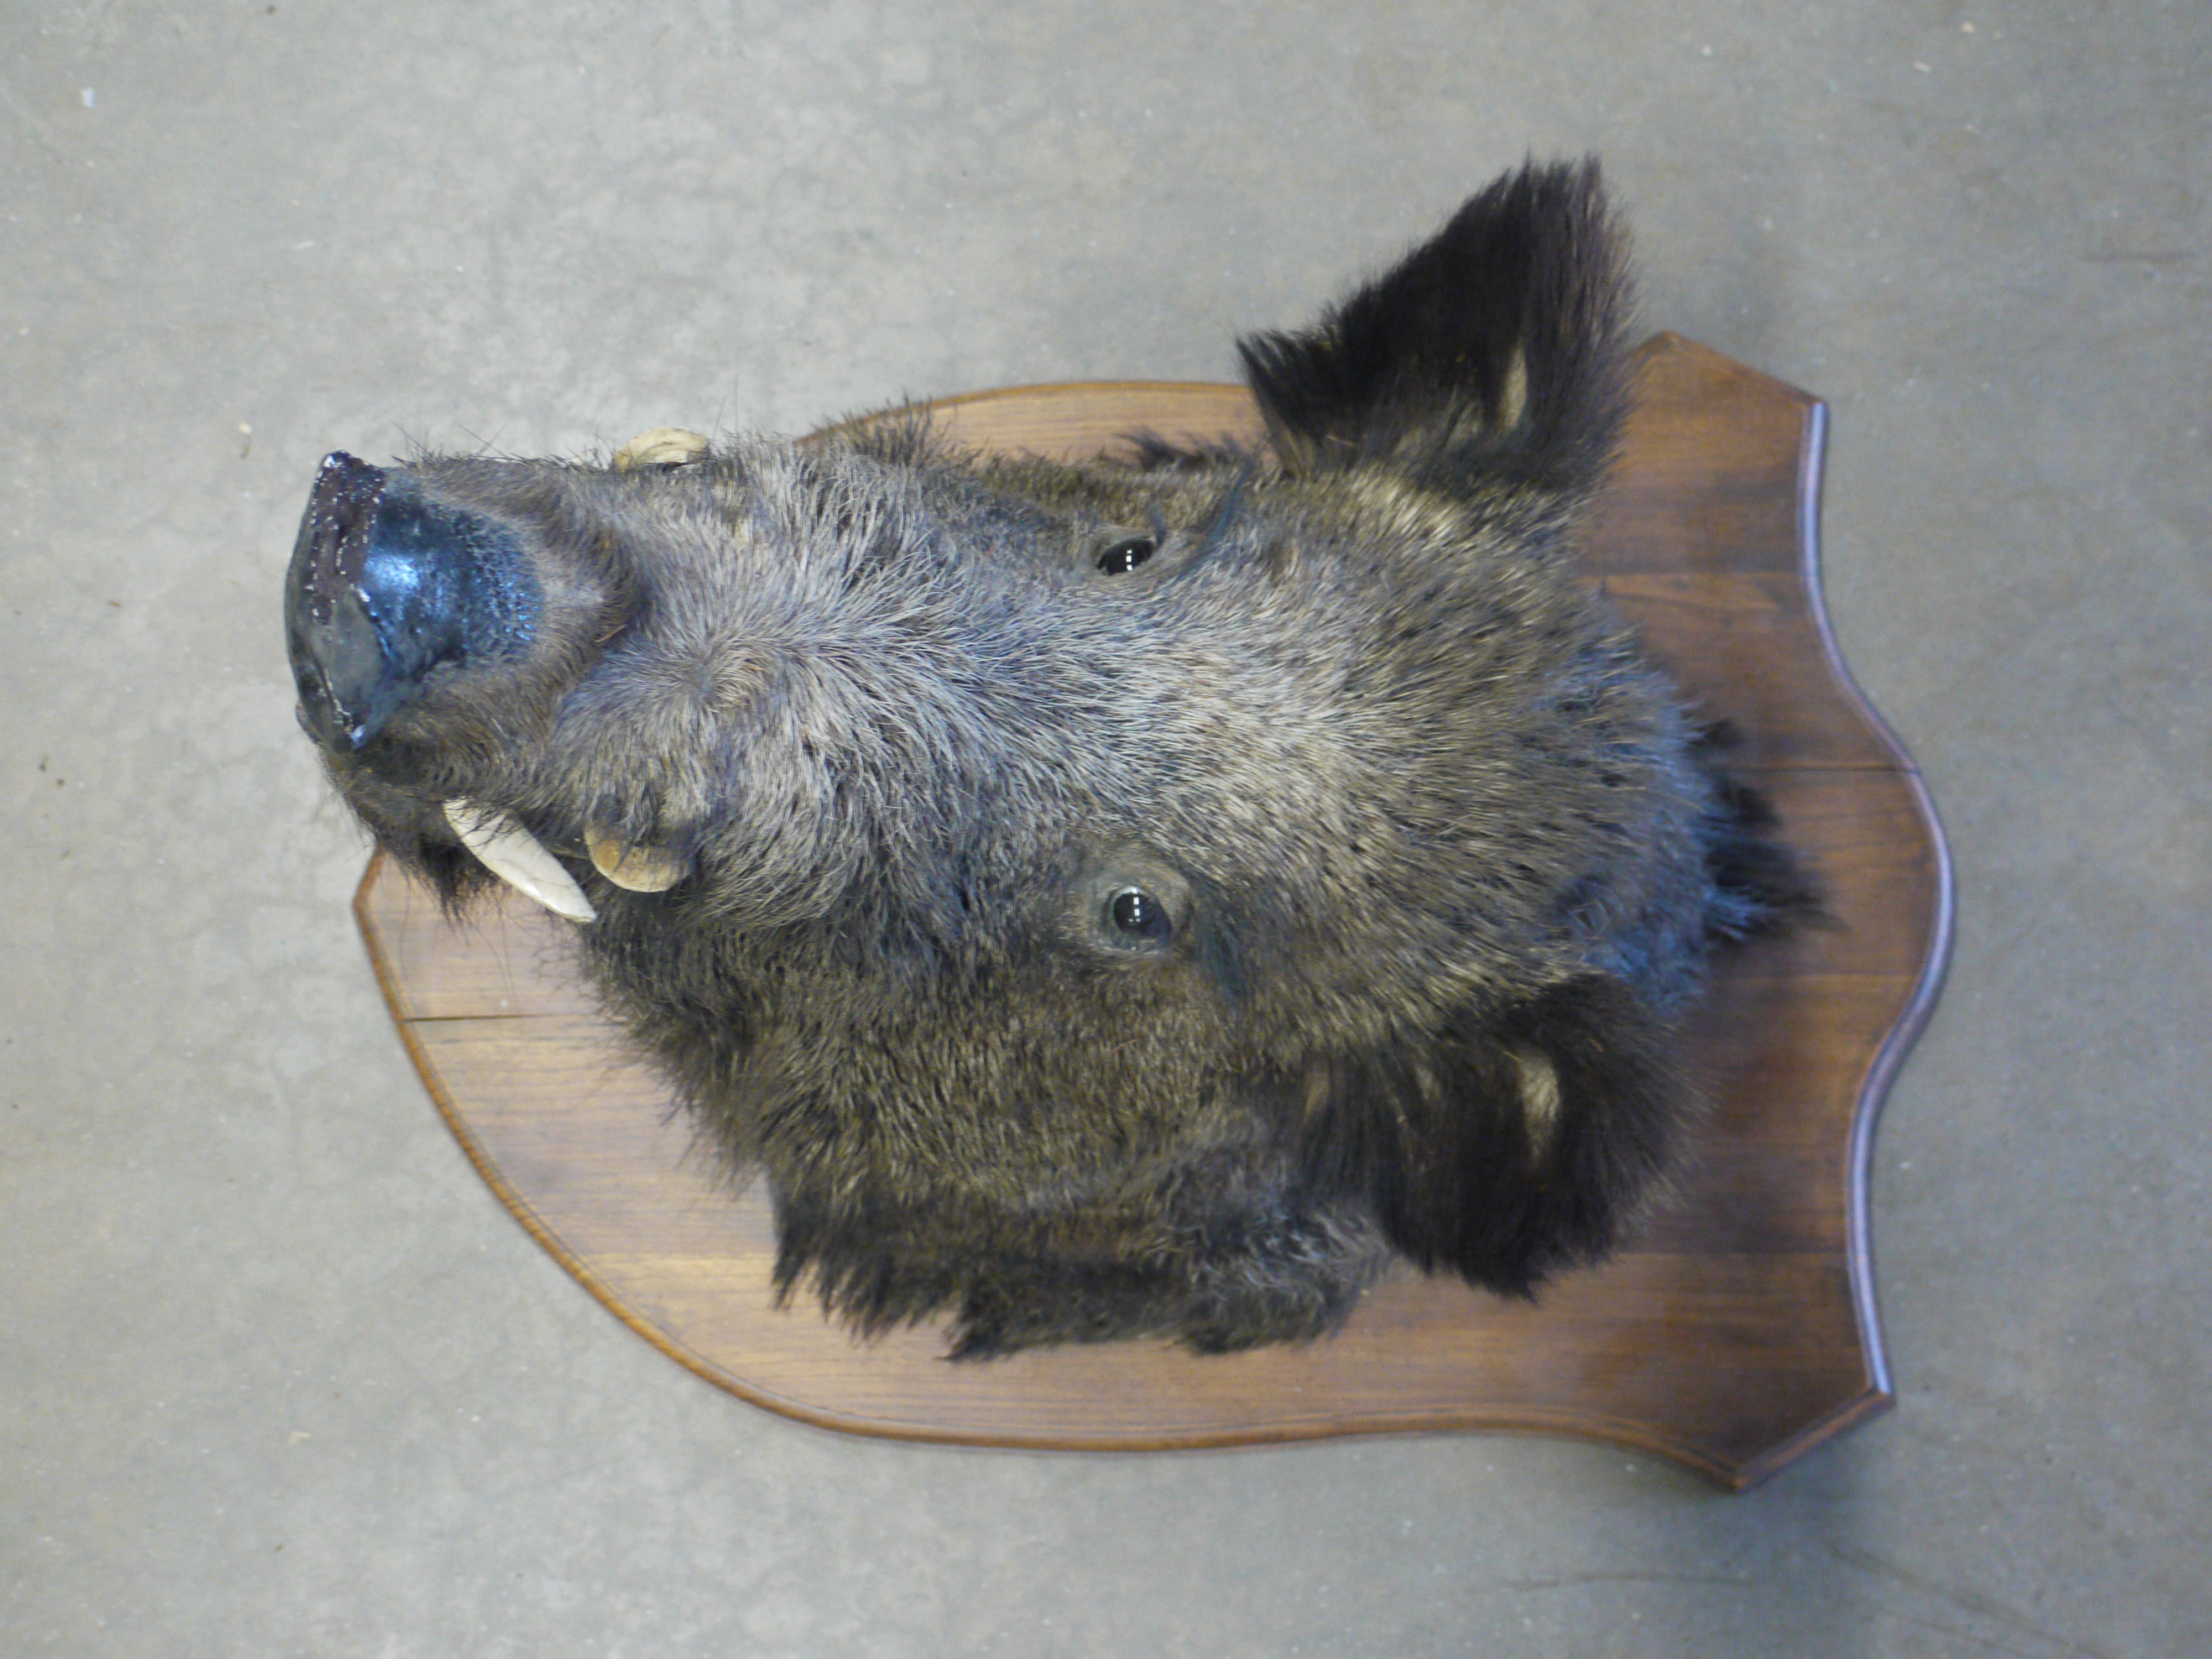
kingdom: Animalia
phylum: Chordata
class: Mammalia
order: Artiodactyla
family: Suidae
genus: Sus
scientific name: Sus scrofa
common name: Wild boar
